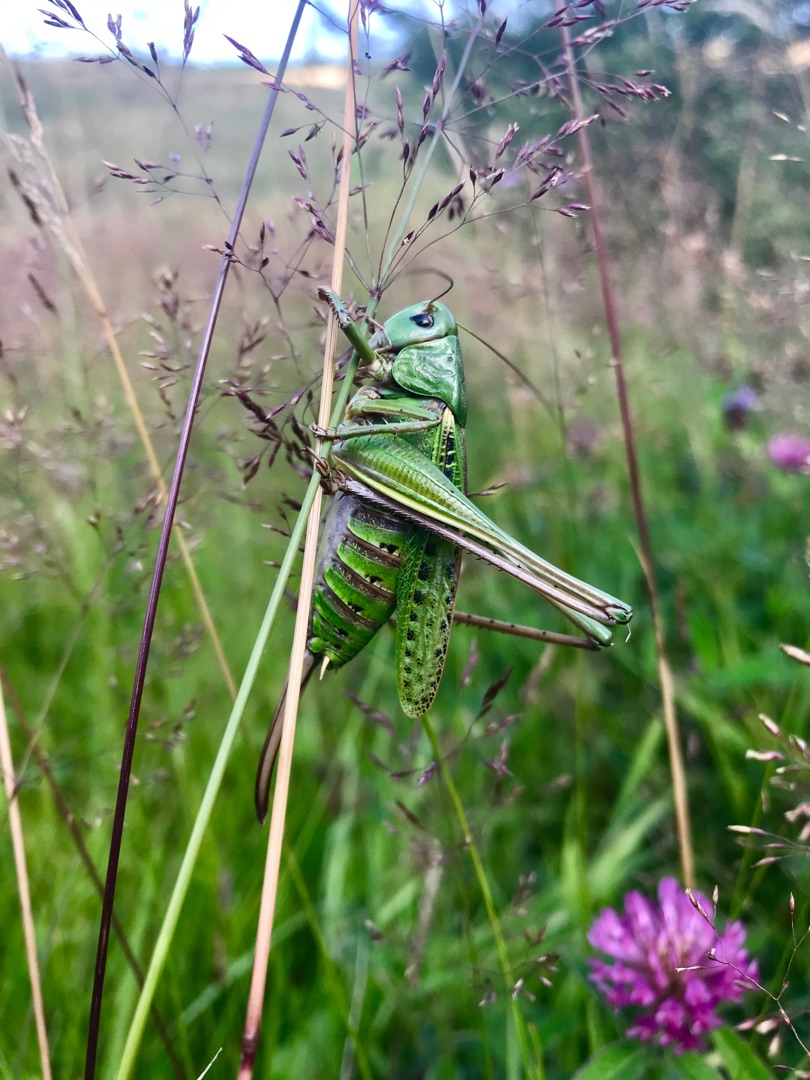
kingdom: Animalia
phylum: Arthropoda
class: Insecta
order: Orthoptera
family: Tettigoniidae
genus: Decticus
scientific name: Decticus verrucivorus
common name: Vortebider
